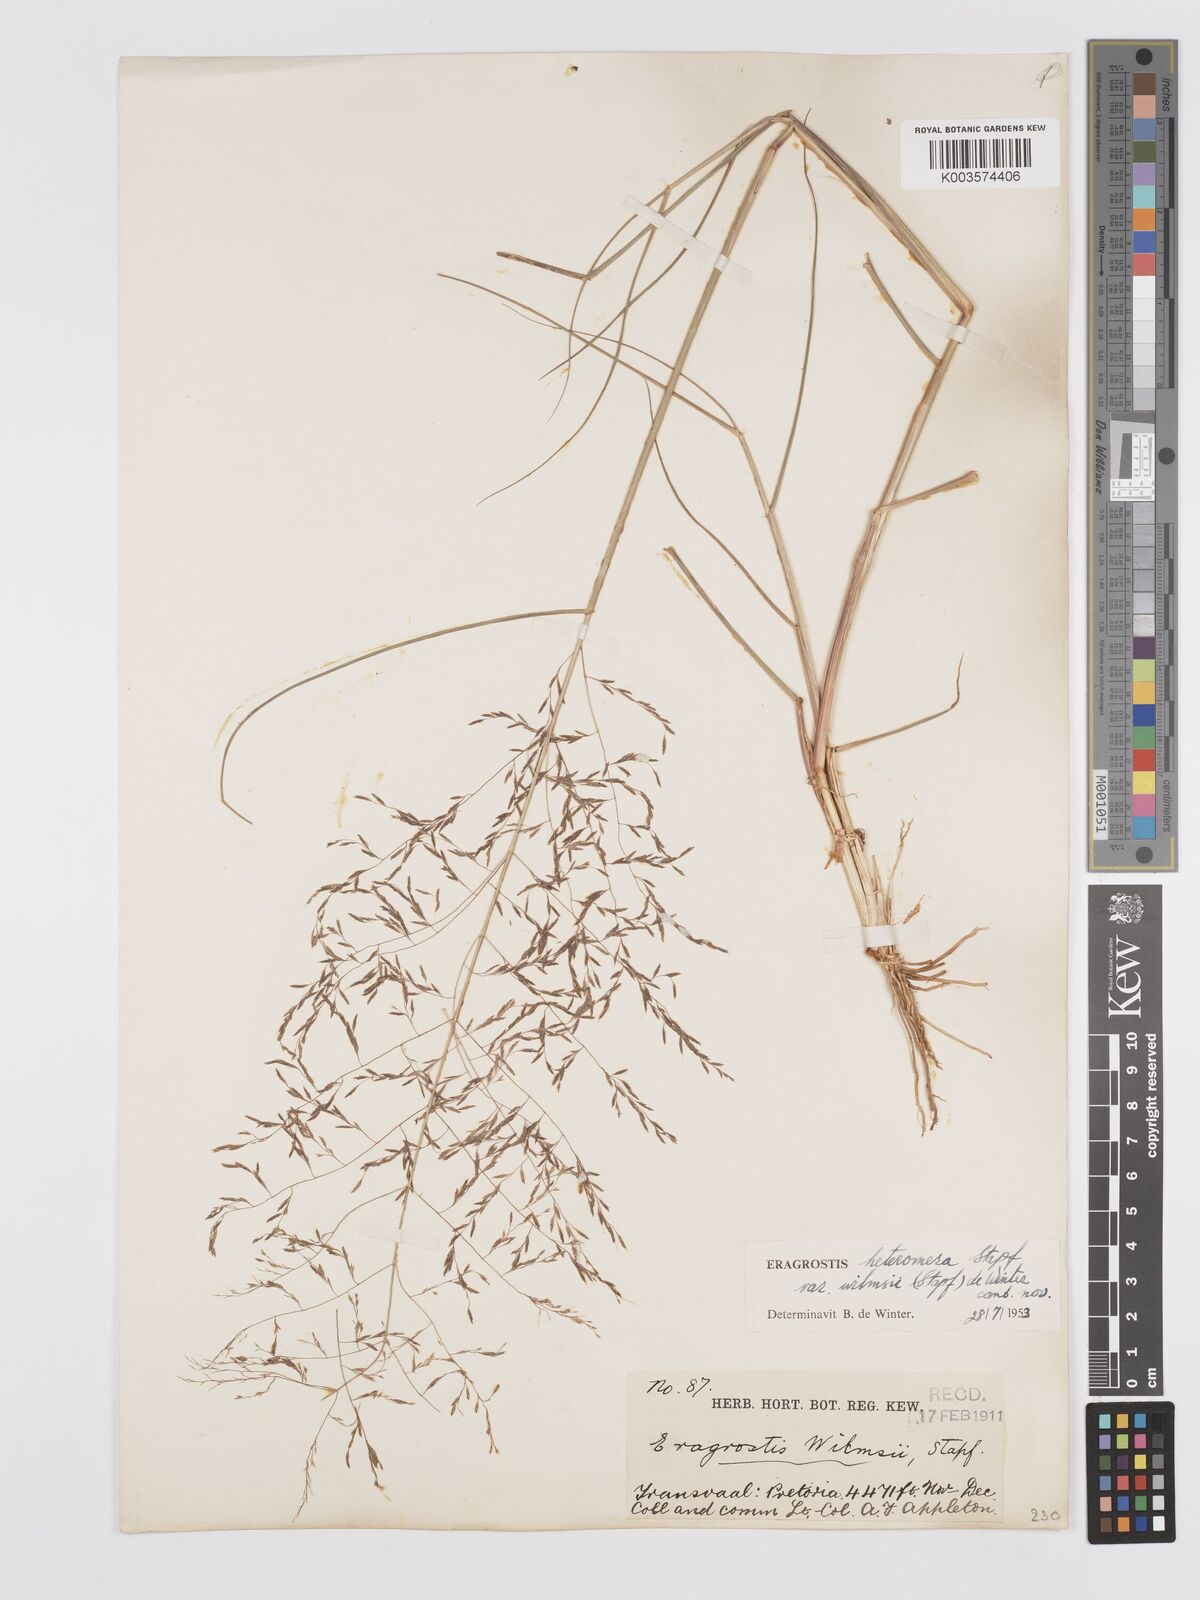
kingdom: Plantae
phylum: Tracheophyta
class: Liliopsida
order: Poales
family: Poaceae
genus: Eragrostis
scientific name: Eragrostis heteromera
